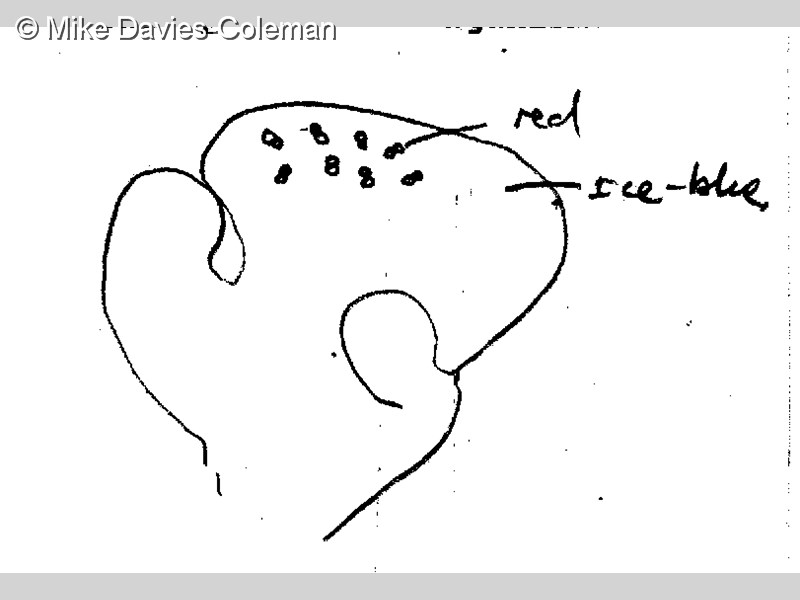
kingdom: Animalia
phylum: Chordata
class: Ascidiacea
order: Aplousobranchia
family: Clavelinidae
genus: Nephtheis
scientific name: Nephtheis
